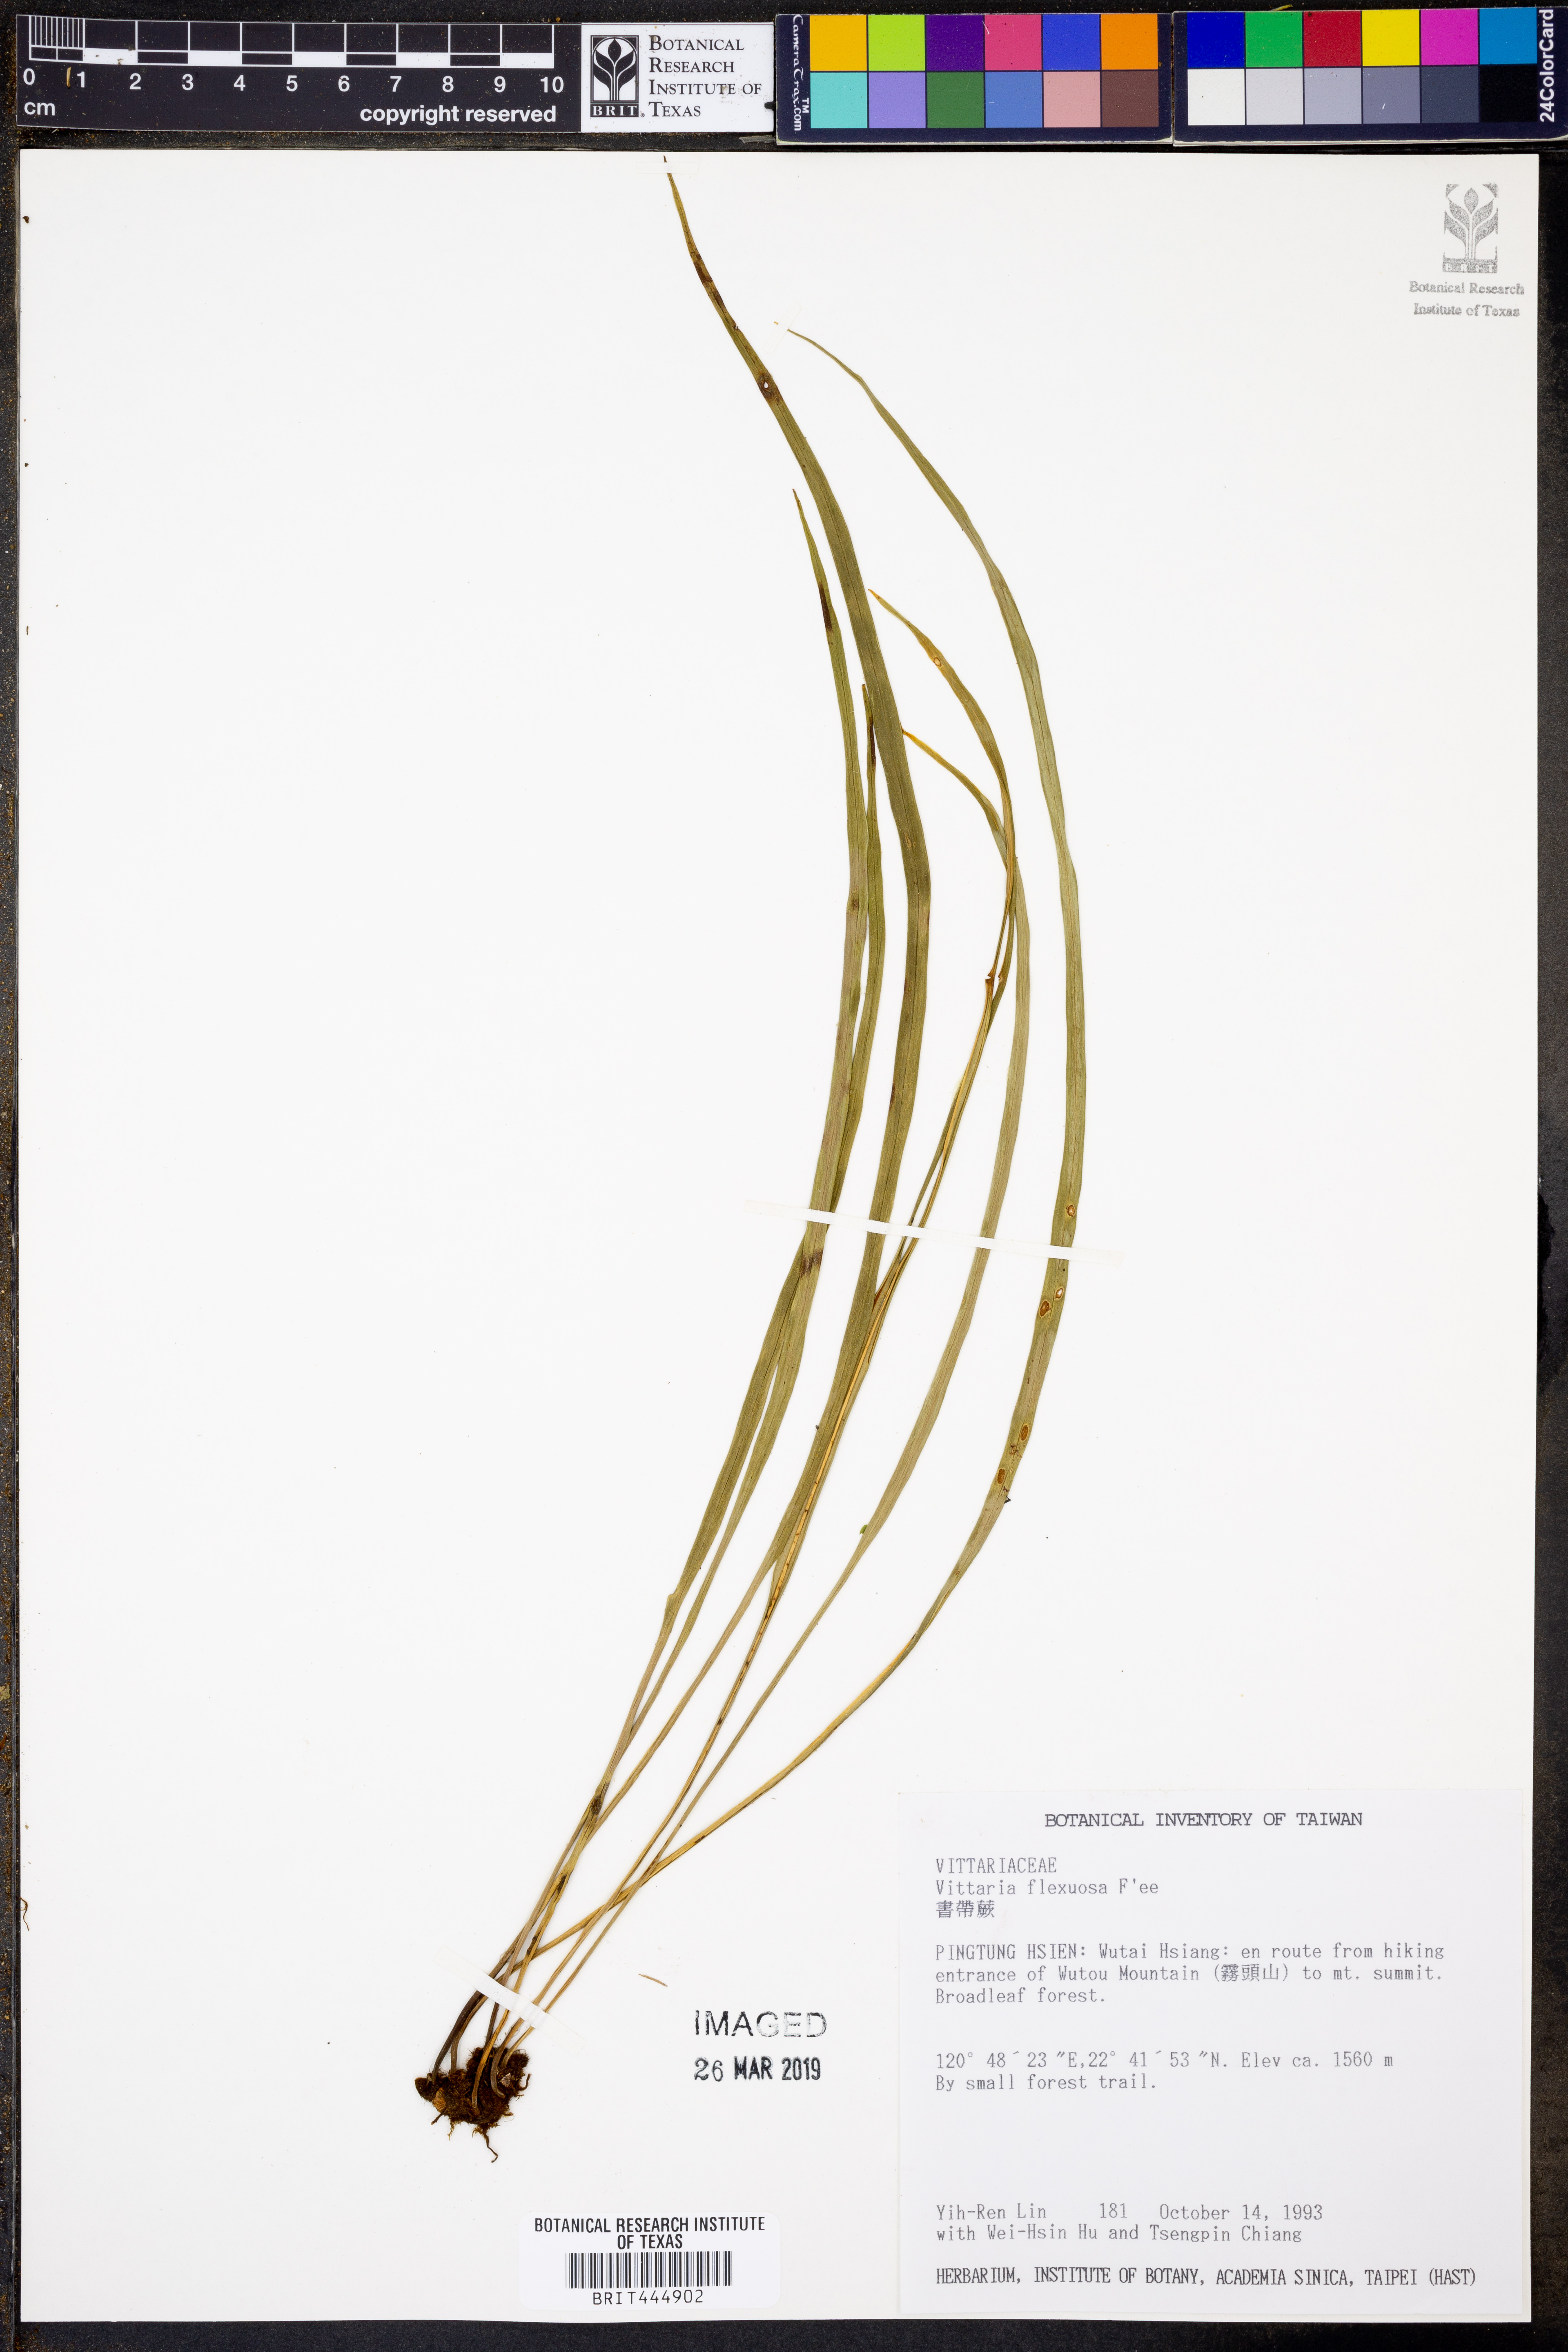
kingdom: Plantae
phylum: Tracheophyta
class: Polypodiopsida
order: Polypodiales
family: Pteridaceae
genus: Haplopteris
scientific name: Haplopteris flexuosa
